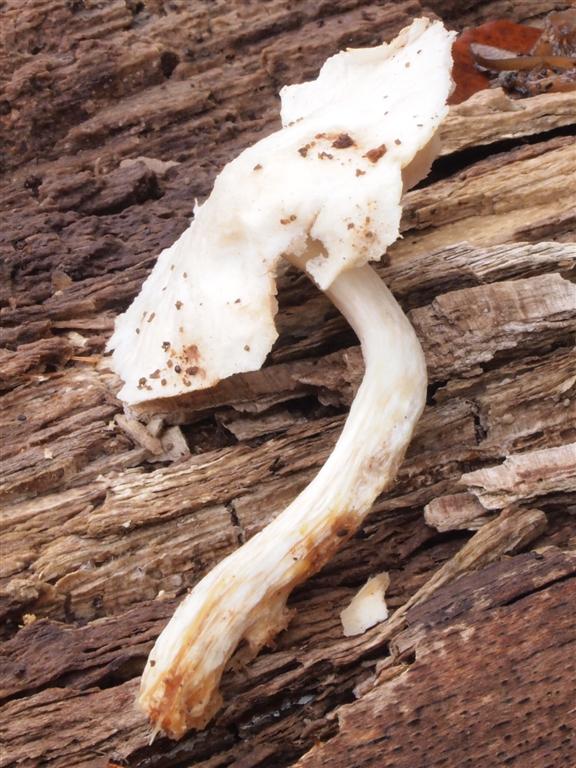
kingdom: Fungi
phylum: Basidiomycota
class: Agaricomycetes
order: Agaricales
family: Pluteaceae
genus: Pluteus
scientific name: Pluteus
